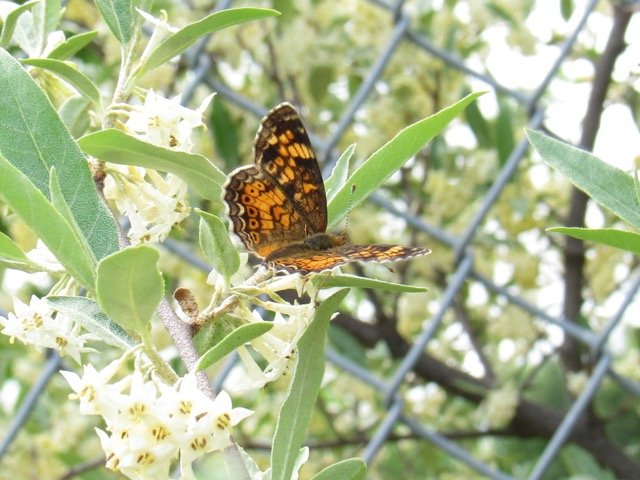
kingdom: Animalia
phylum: Arthropoda
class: Insecta
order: Lepidoptera
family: Nymphalidae
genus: Phyciodes
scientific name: Phyciodes tharos
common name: Pearl Crescent
